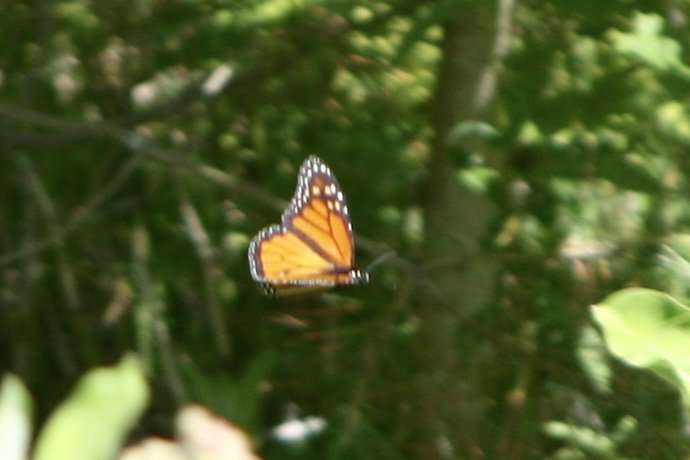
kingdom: Animalia
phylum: Arthropoda
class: Insecta
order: Lepidoptera
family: Nymphalidae
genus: Danaus
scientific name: Danaus plexippus
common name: Monarch
